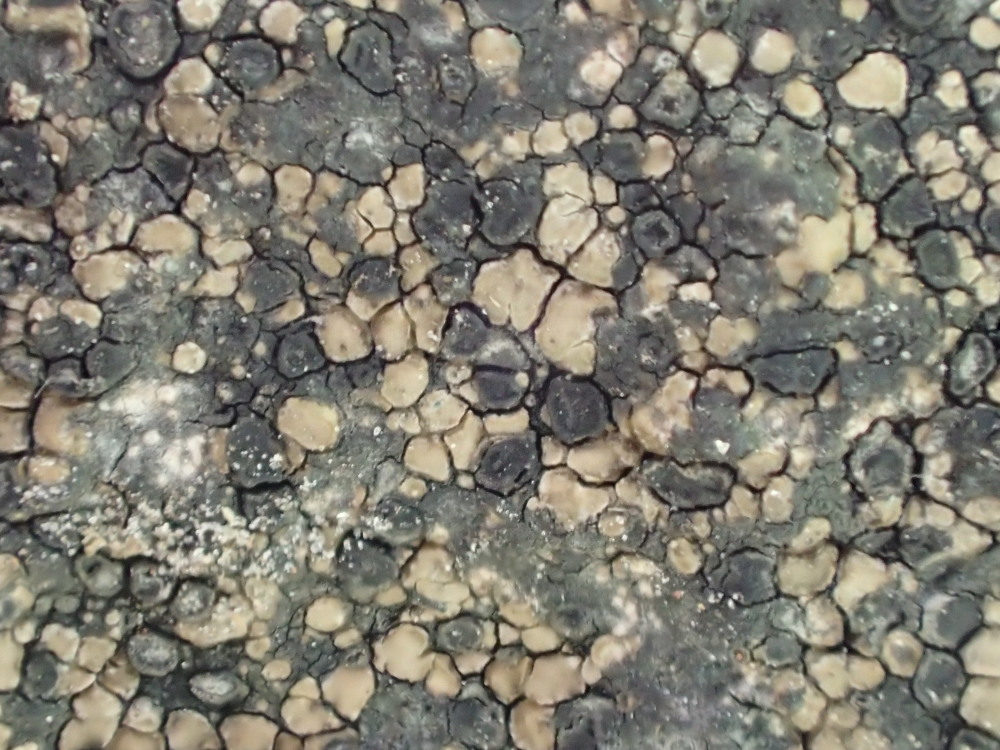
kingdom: Fungi
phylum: Ascomycota
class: Lecanoromycetes
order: Lecideales
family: Lecideaceae
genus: Lecidea
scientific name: Lecidea fuscoatra
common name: rudret skivelav
